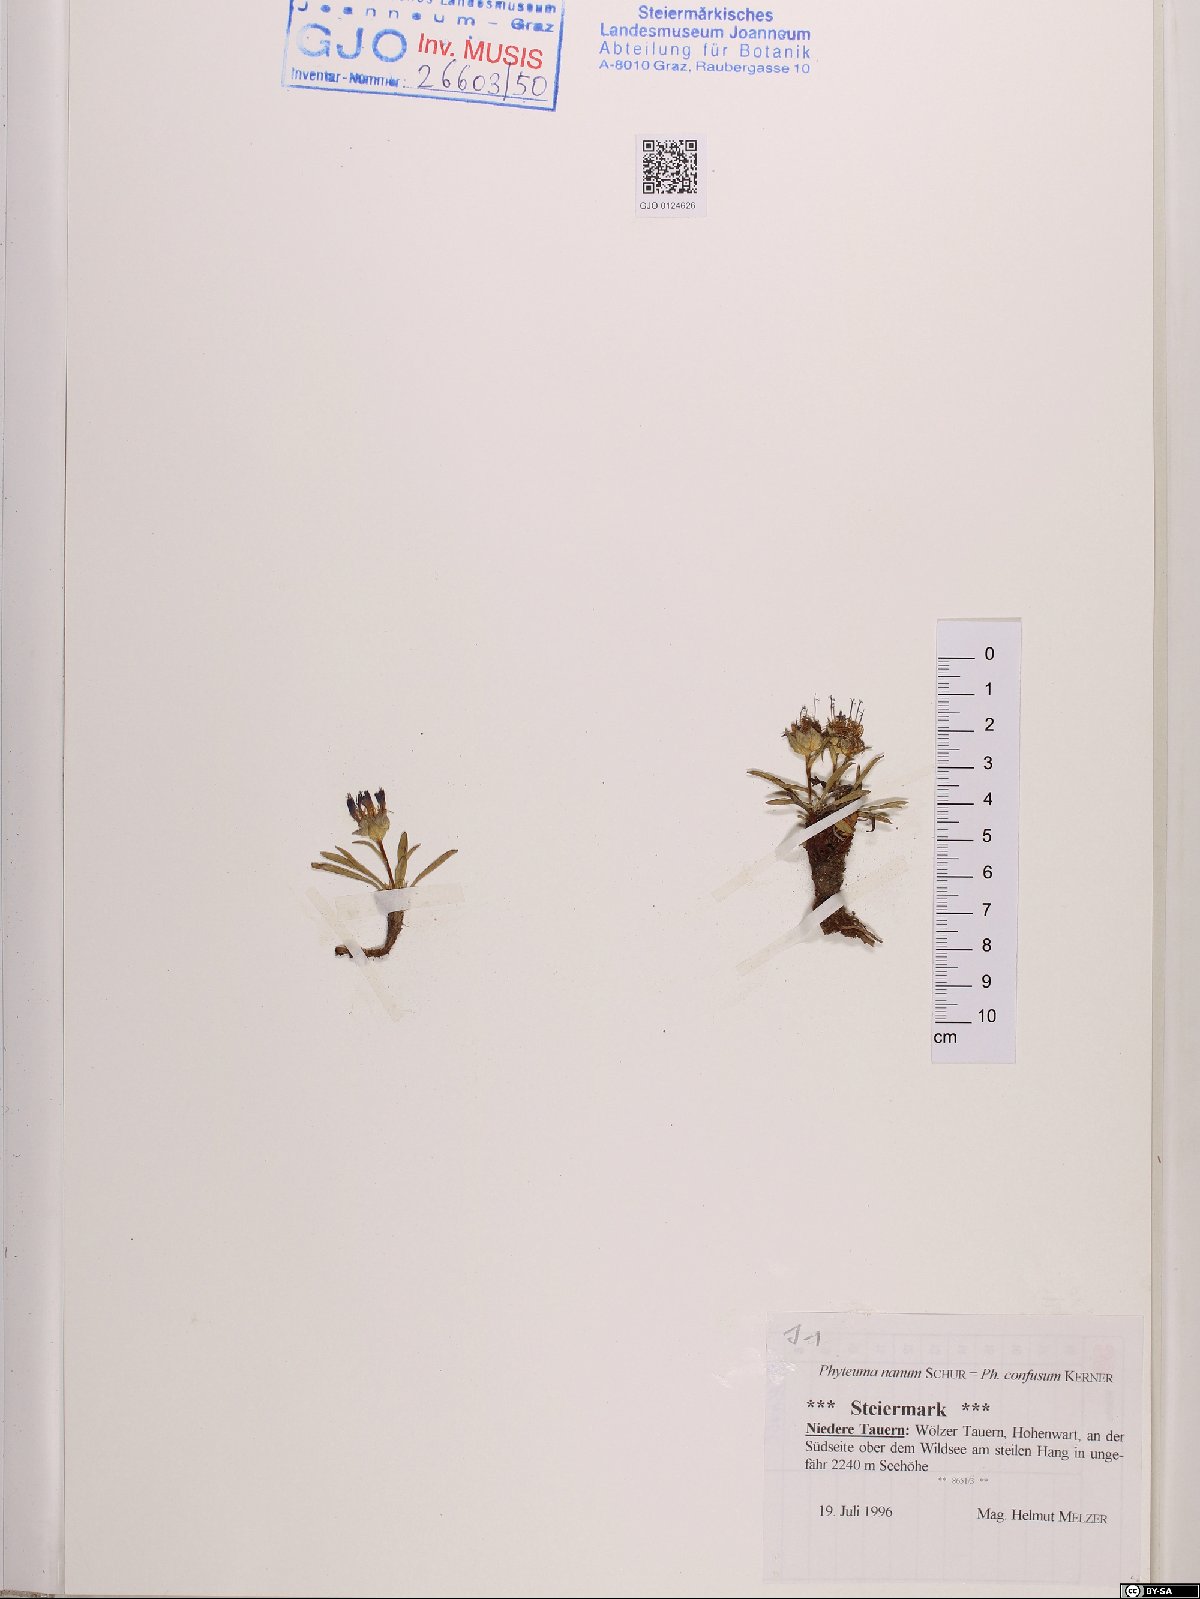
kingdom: Plantae
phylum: Tracheophyta
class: Magnoliopsida
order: Asterales
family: Campanulaceae
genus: Phyteuma
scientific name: Phyteuma confusum
